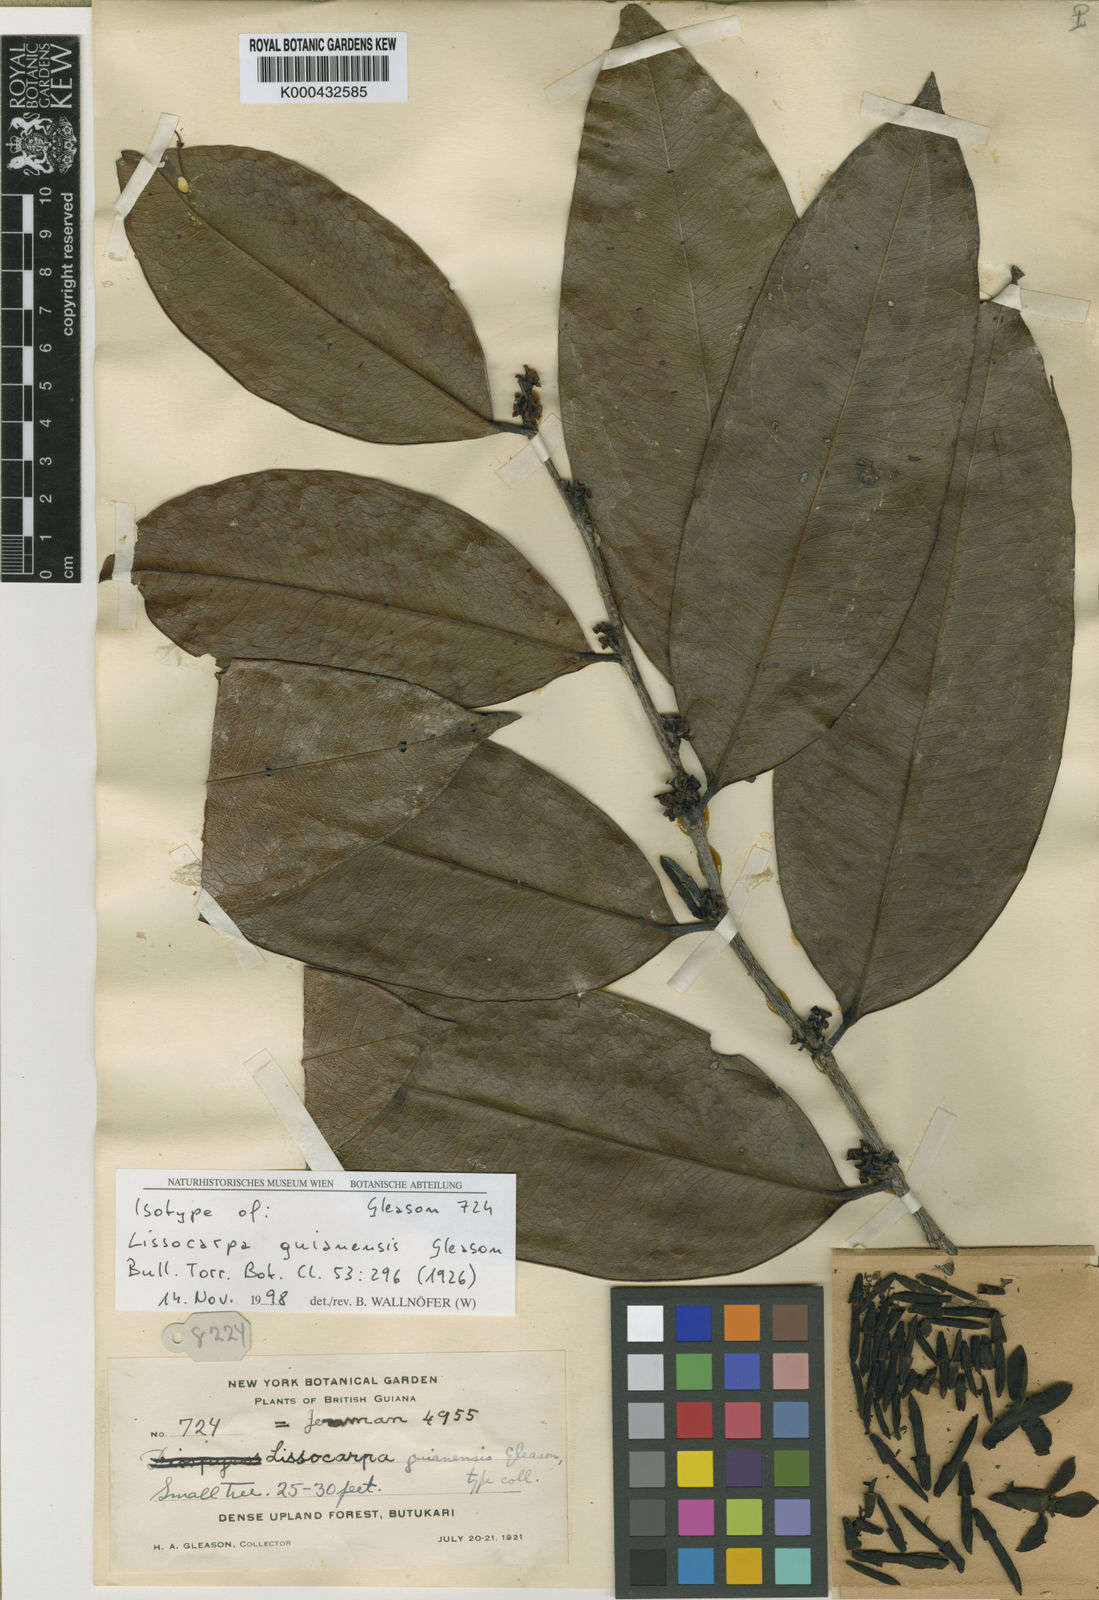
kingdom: Plantae
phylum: Tracheophyta
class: Magnoliopsida
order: Ericales
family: Ebenaceae
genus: Lissocarpa
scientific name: Lissocarpa guianensis
